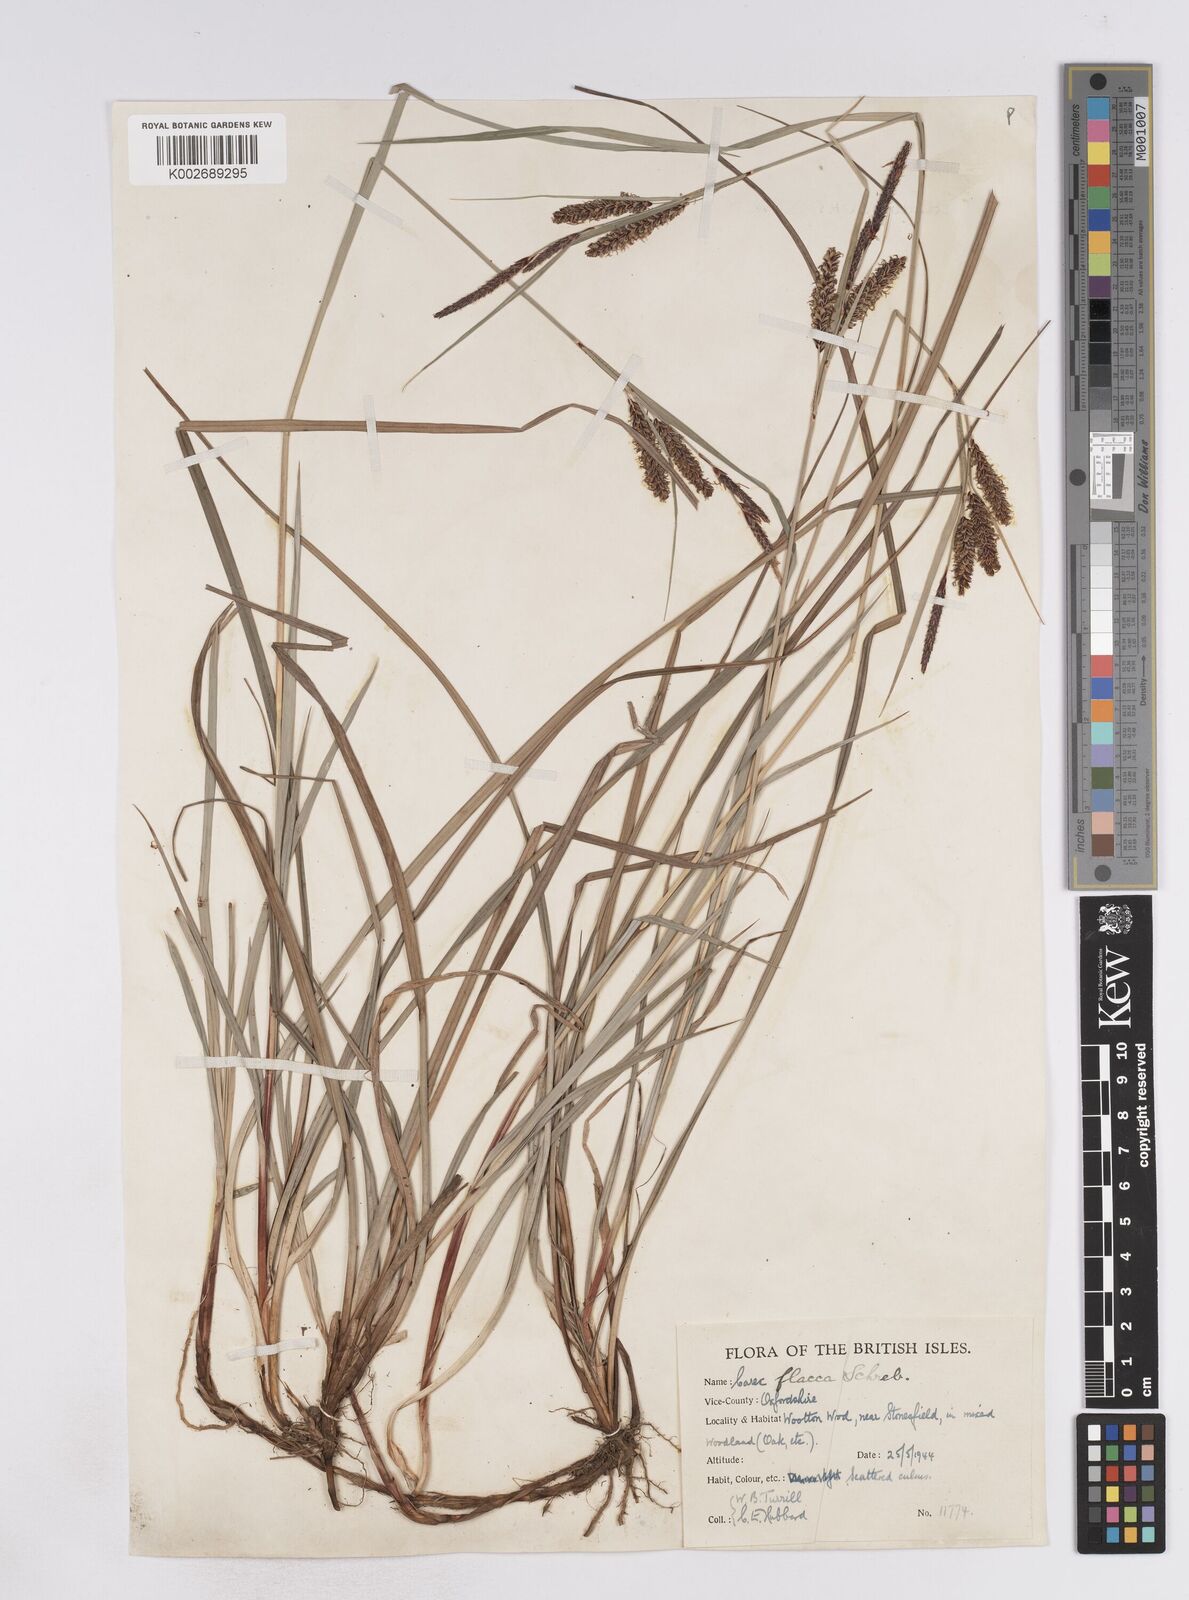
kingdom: Plantae
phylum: Tracheophyta
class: Liliopsida
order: Poales
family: Cyperaceae
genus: Carex
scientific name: Carex flacca
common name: Glaucous sedge
